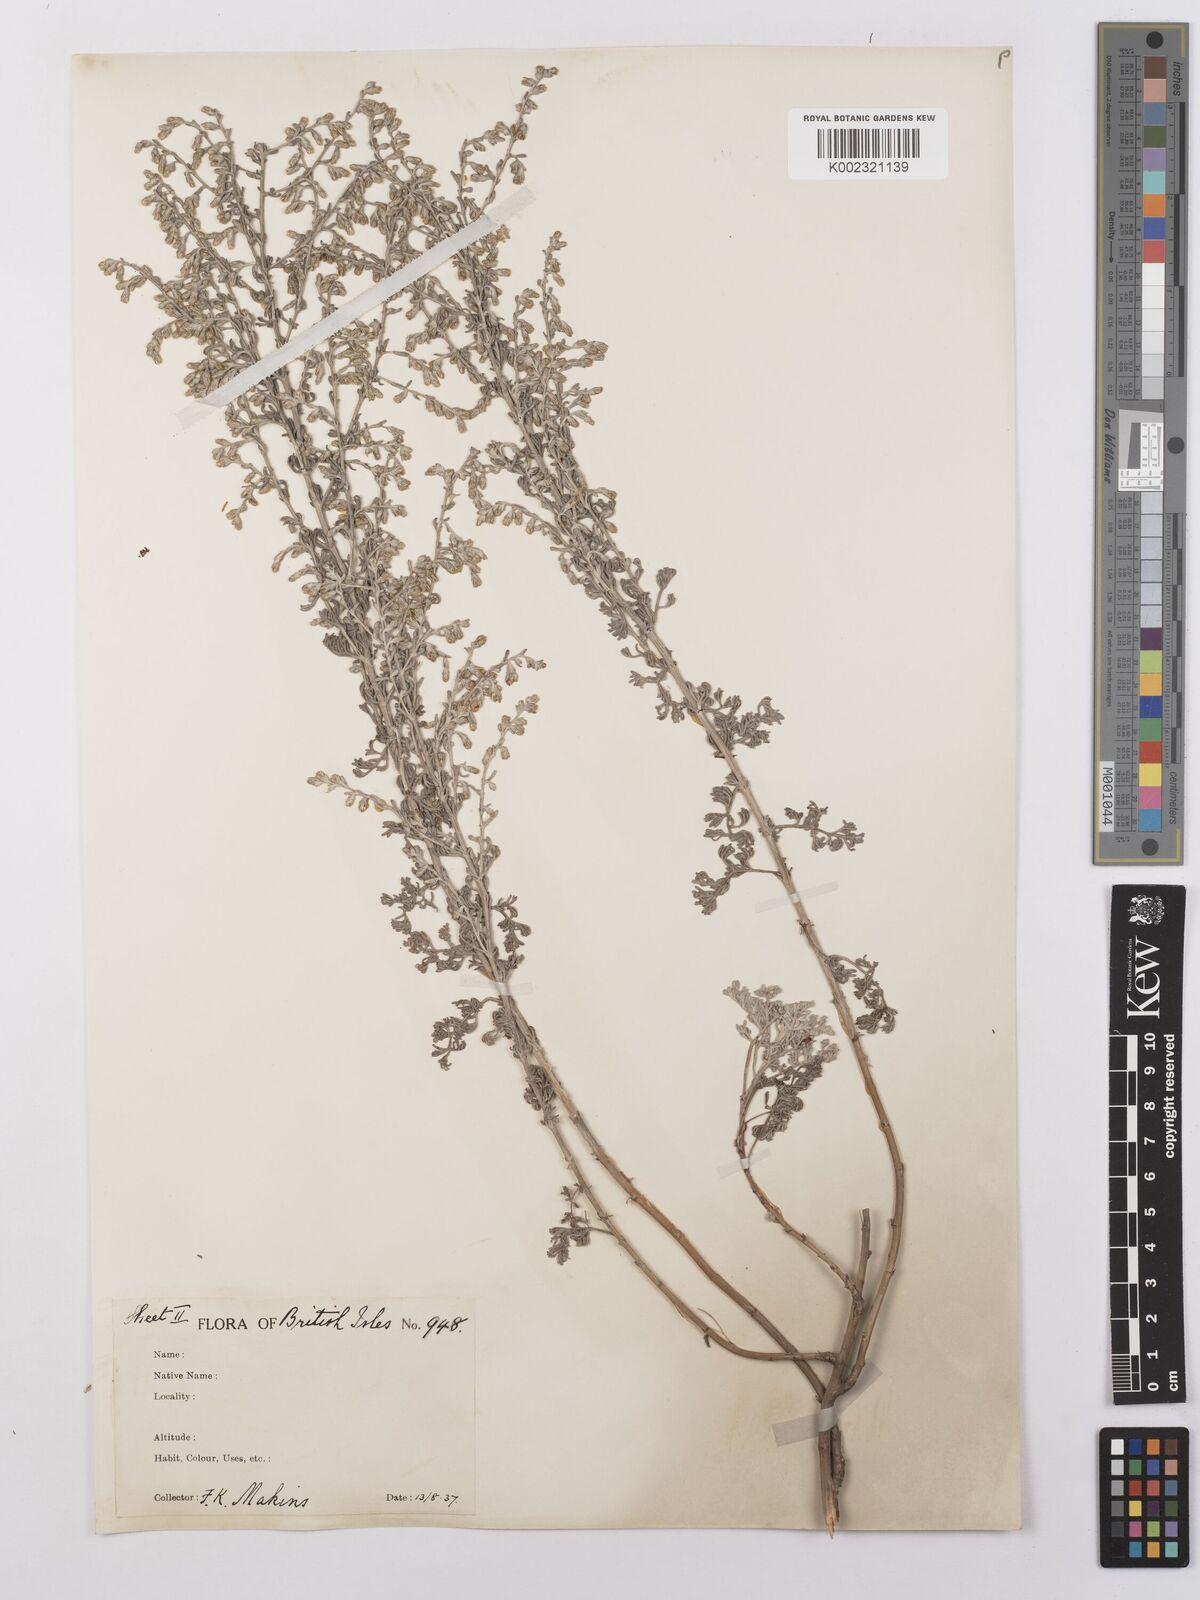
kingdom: Plantae
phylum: Tracheophyta
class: Magnoliopsida
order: Asterales
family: Asteraceae
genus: Artemisia
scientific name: Artemisia maritima
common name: Wormseed
